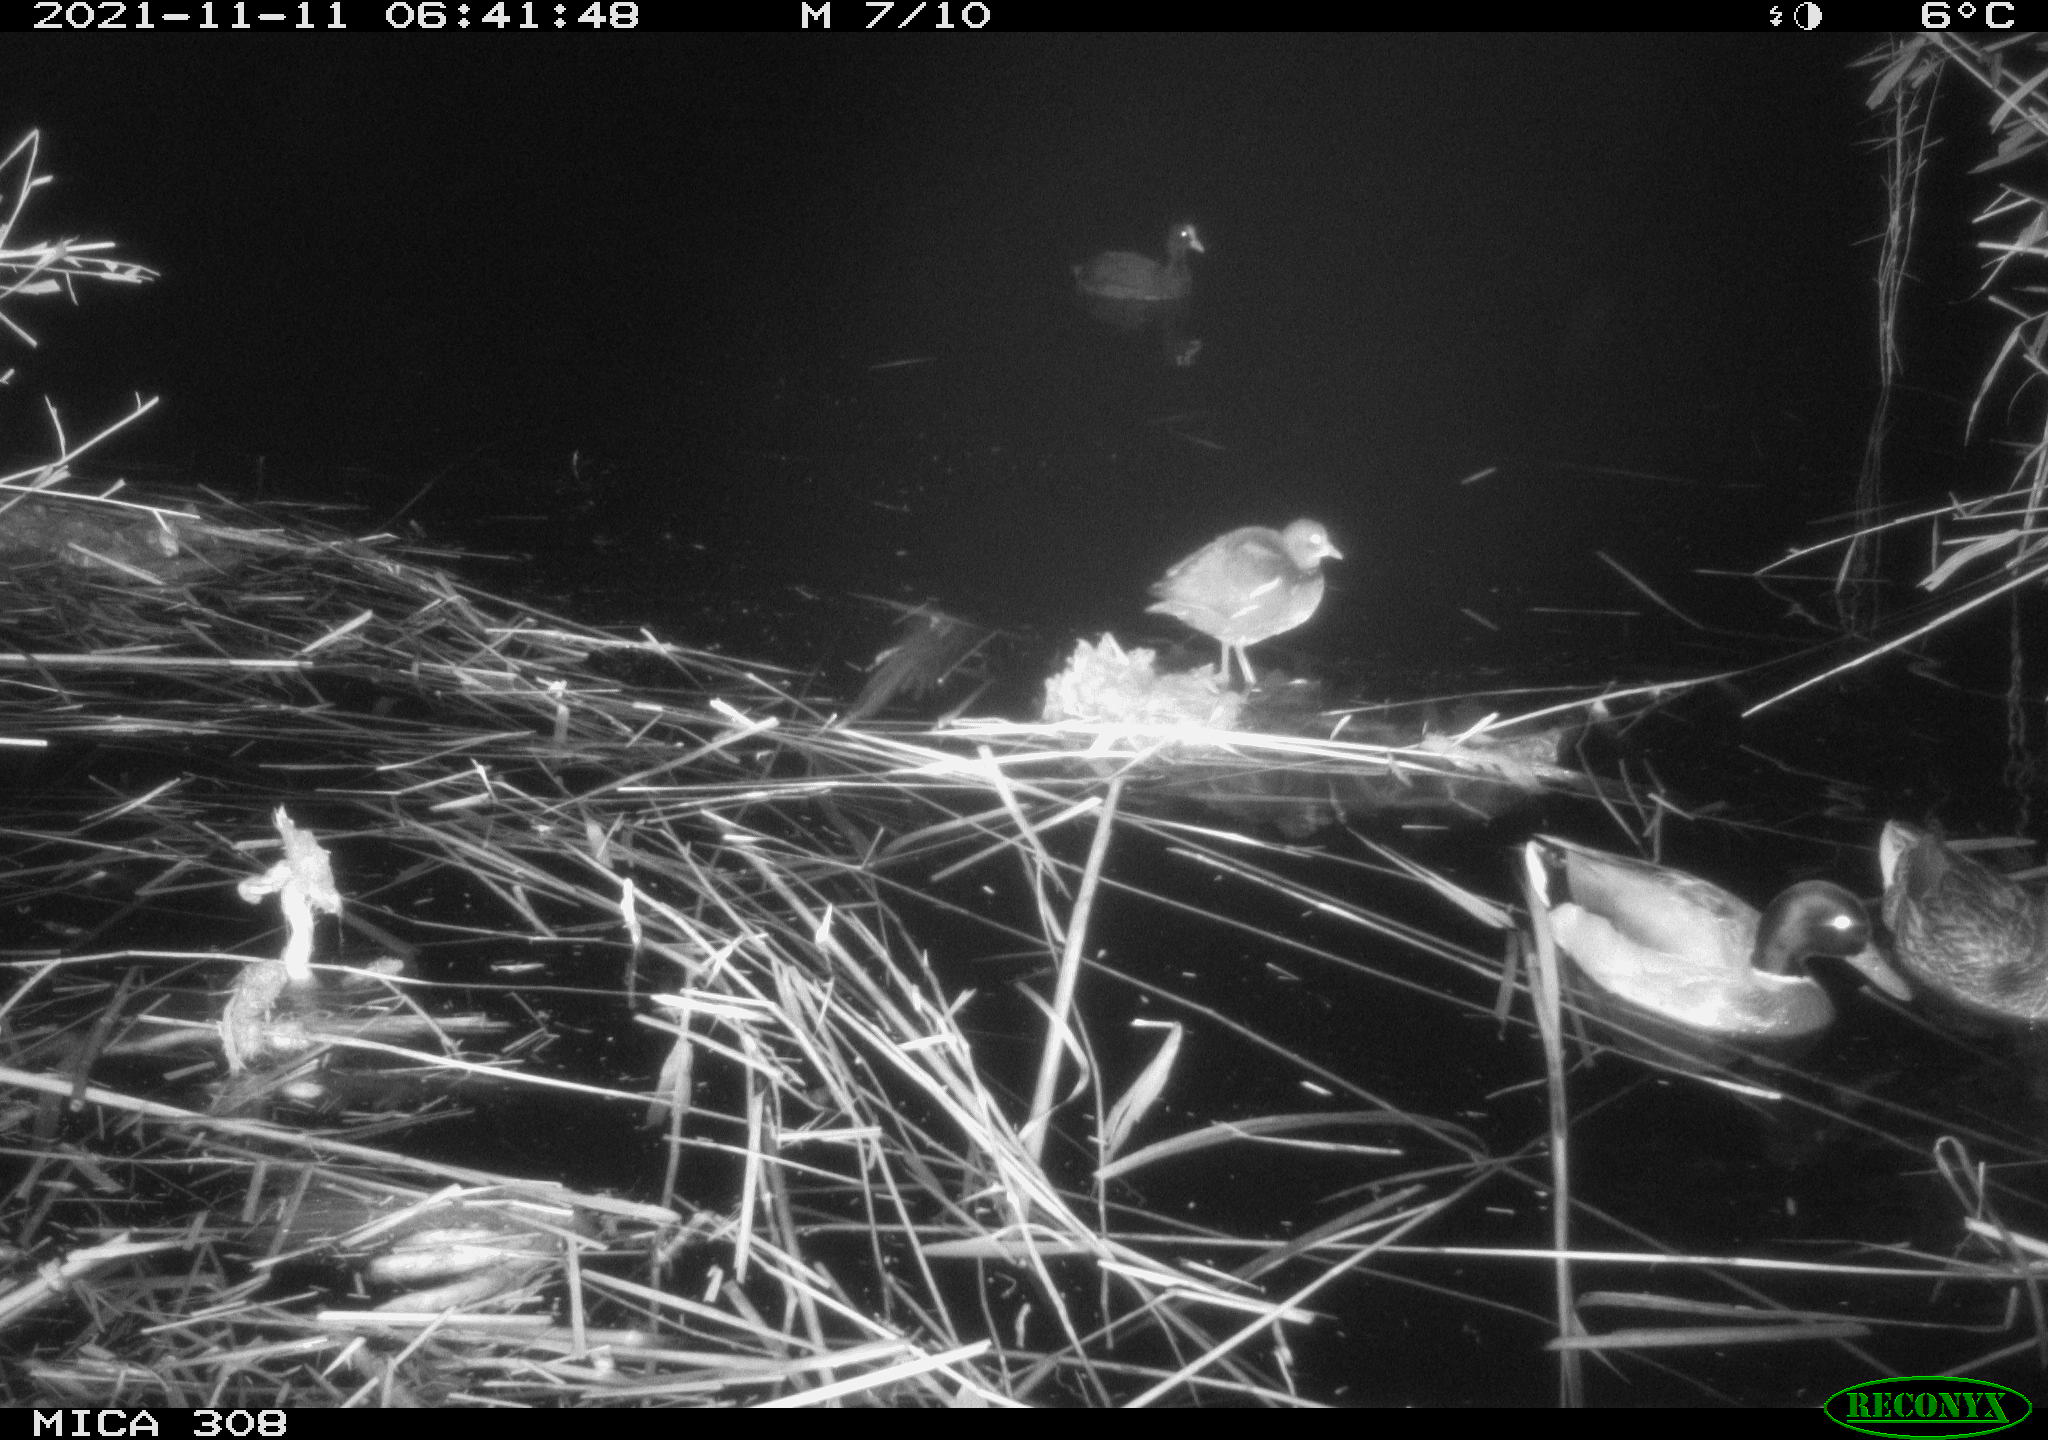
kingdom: Animalia
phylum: Chordata
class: Aves
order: Gruiformes
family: Rallidae
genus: Fulica
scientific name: Fulica atra
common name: Eurasian coot
